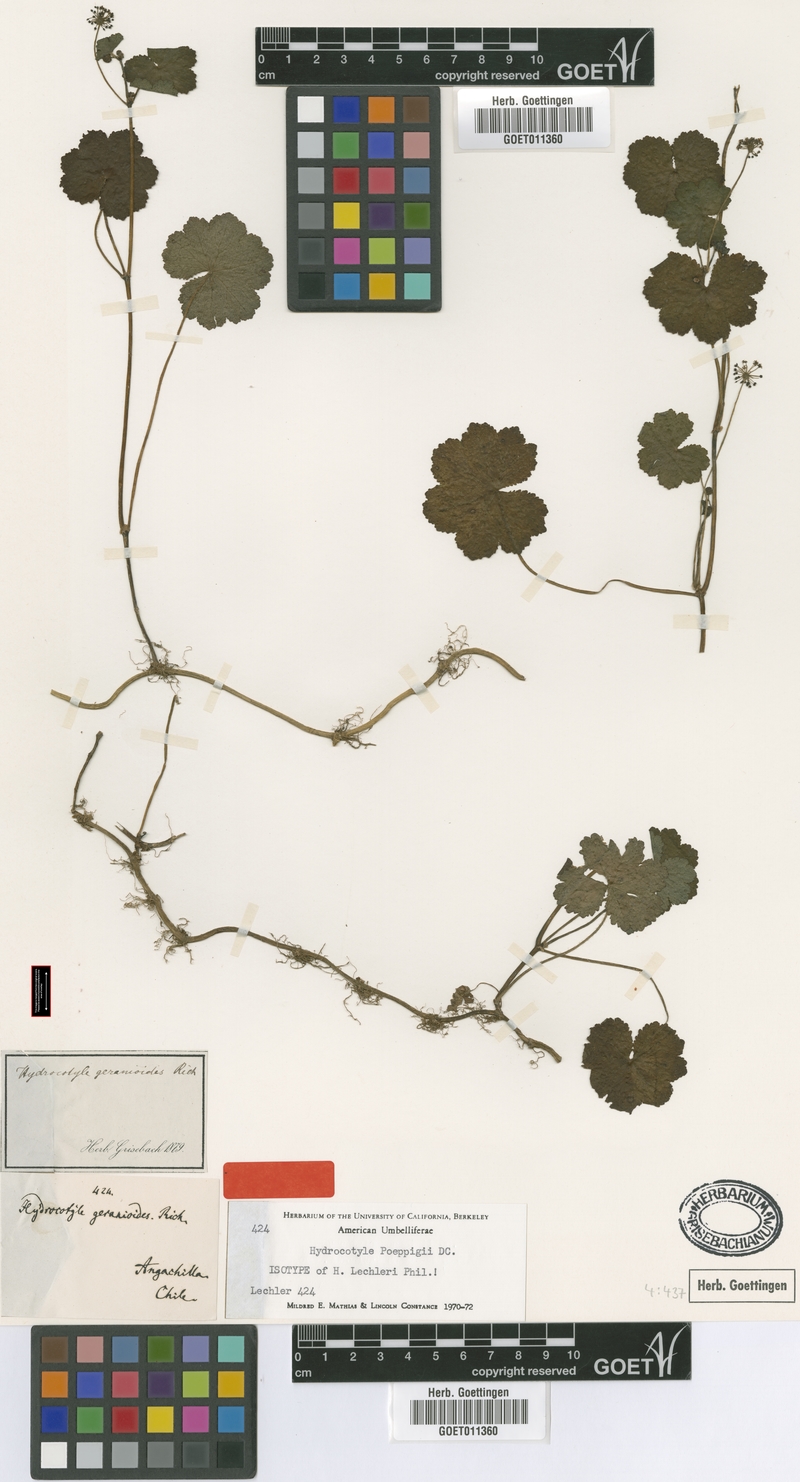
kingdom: Plantae
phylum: Tracheophyta
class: Magnoliopsida
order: Apiales
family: Araliaceae
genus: Hydrocotyle
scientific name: Hydrocotyle poeppigii
